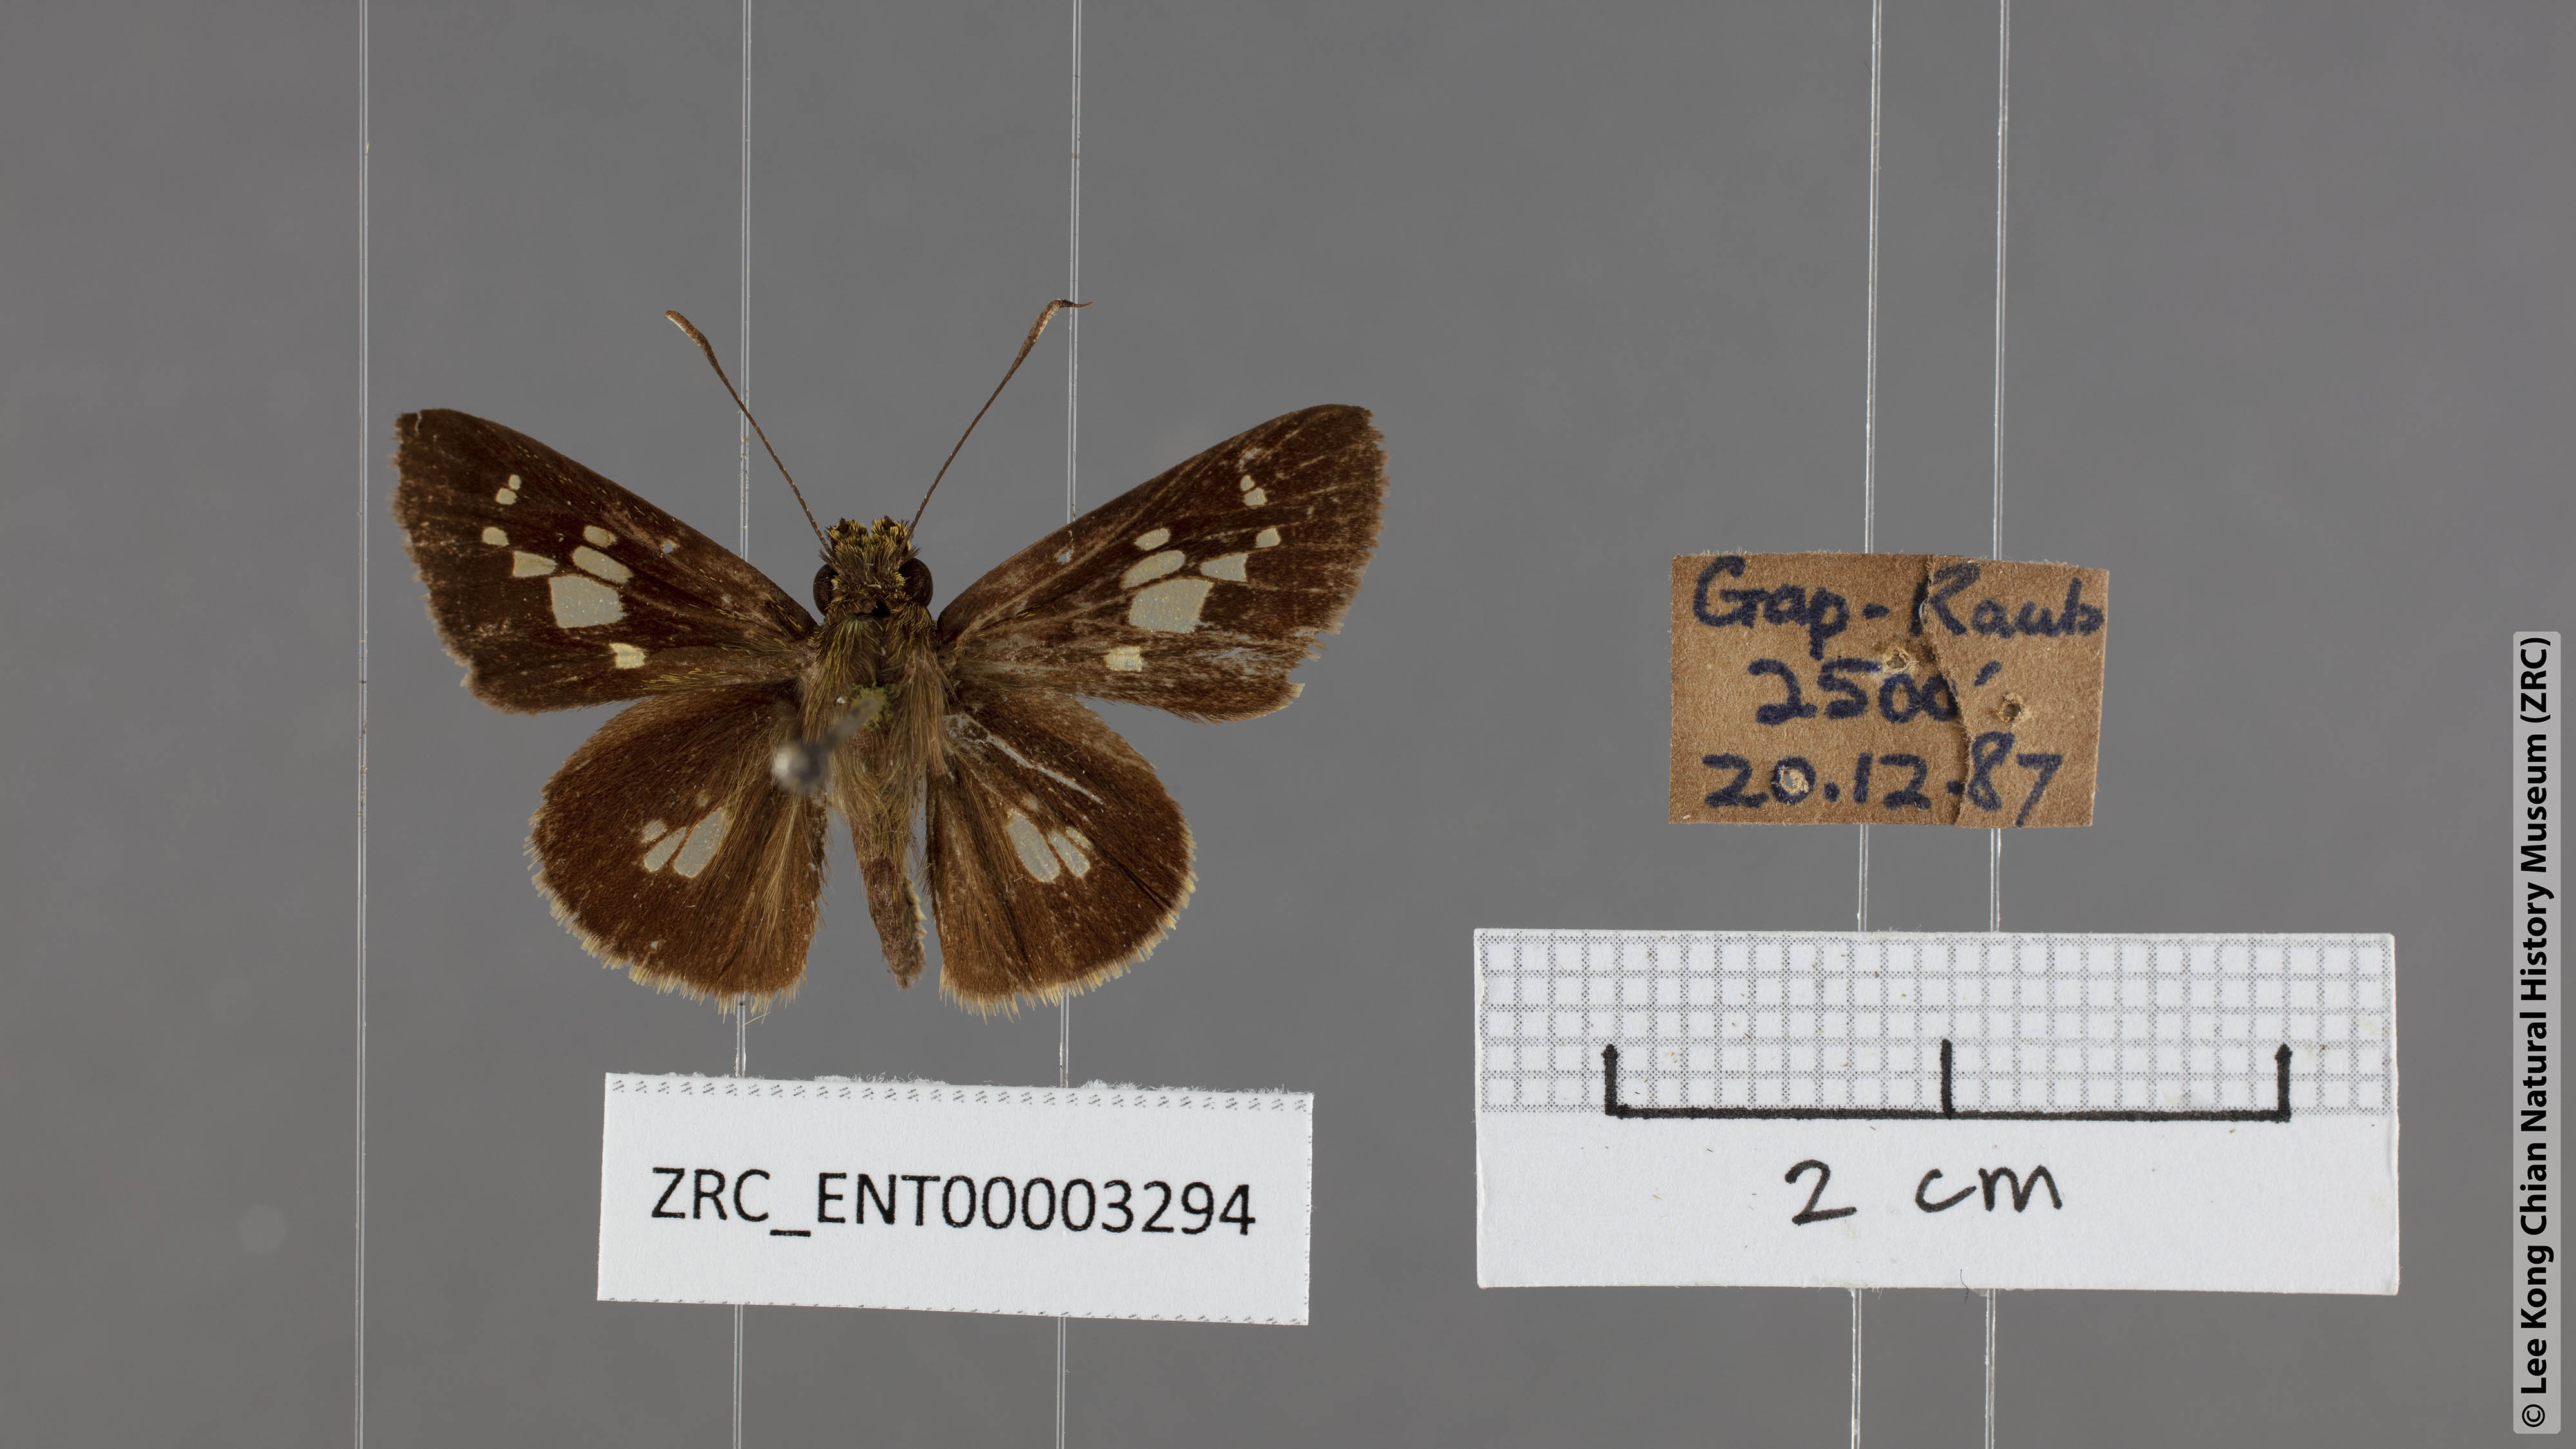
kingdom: Animalia
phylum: Arthropoda
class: Insecta
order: Lepidoptera
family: Hesperiidae
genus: Isma
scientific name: Isma bononia
